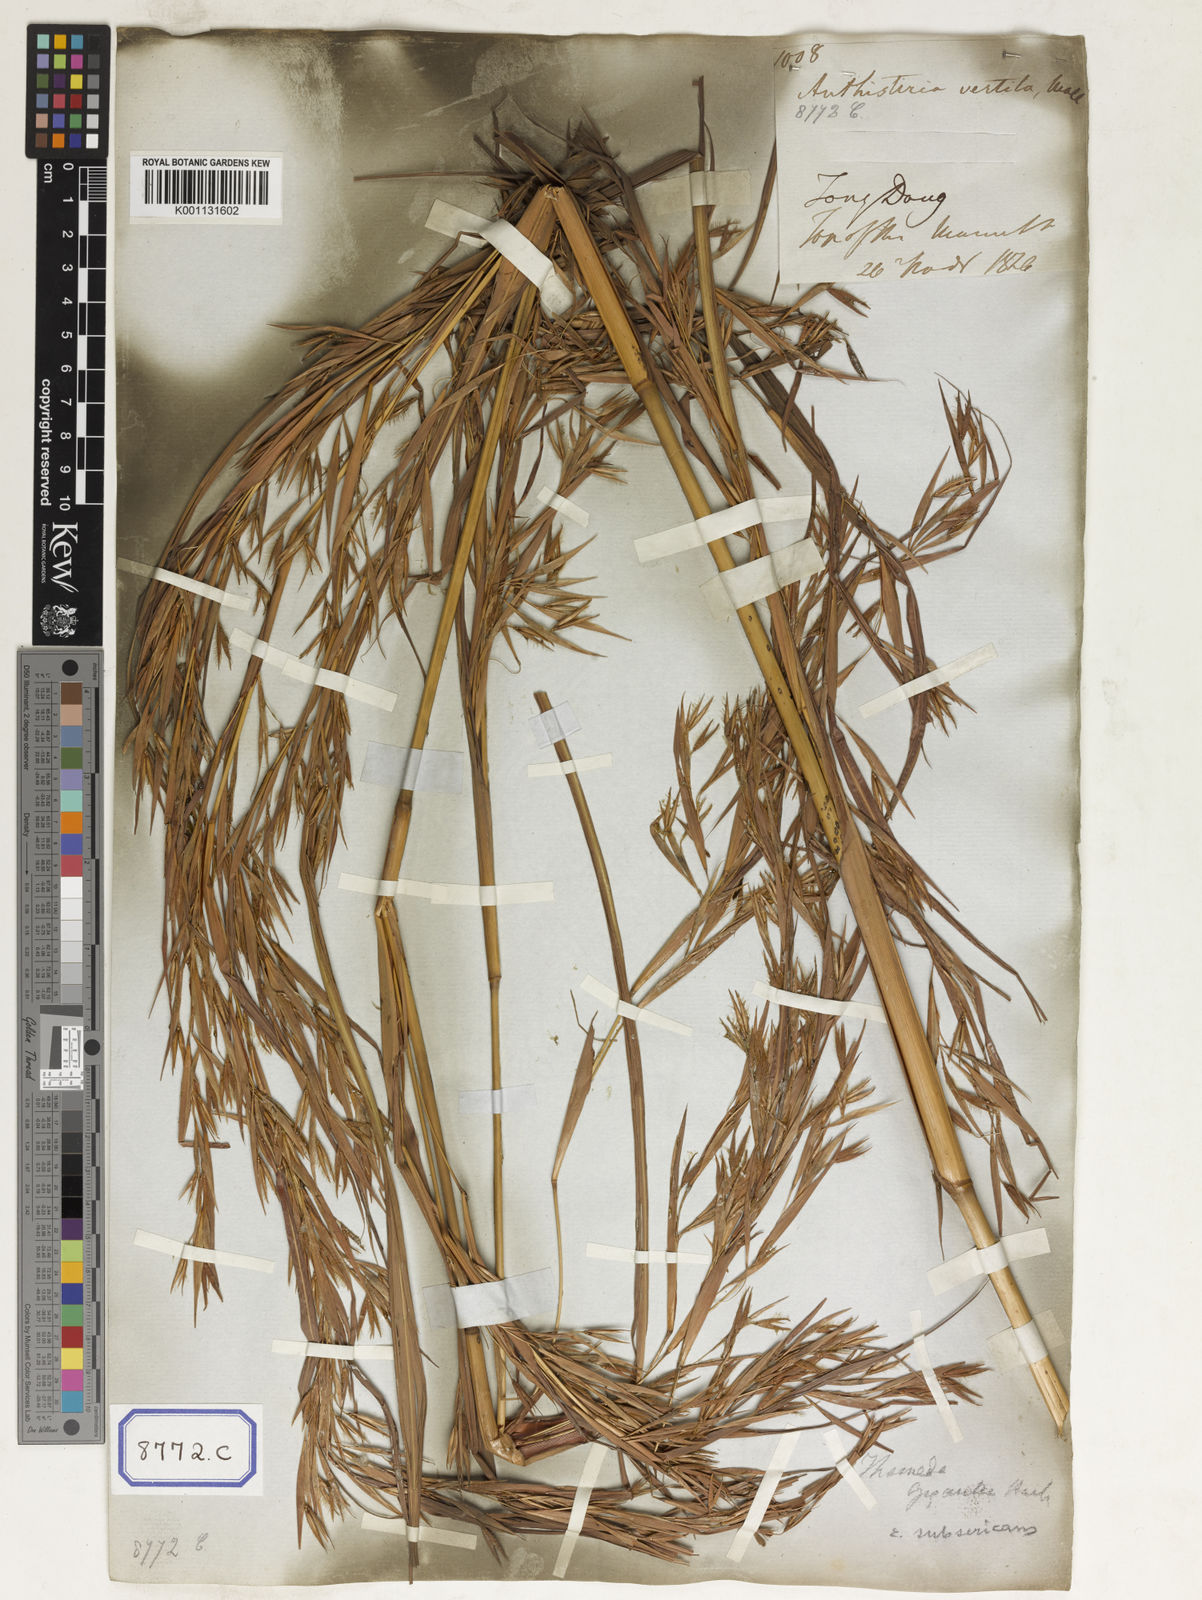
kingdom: Plantae
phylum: Tracheophyta
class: Liliopsida
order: Poales
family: Poaceae
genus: Themeda
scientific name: Themeda
